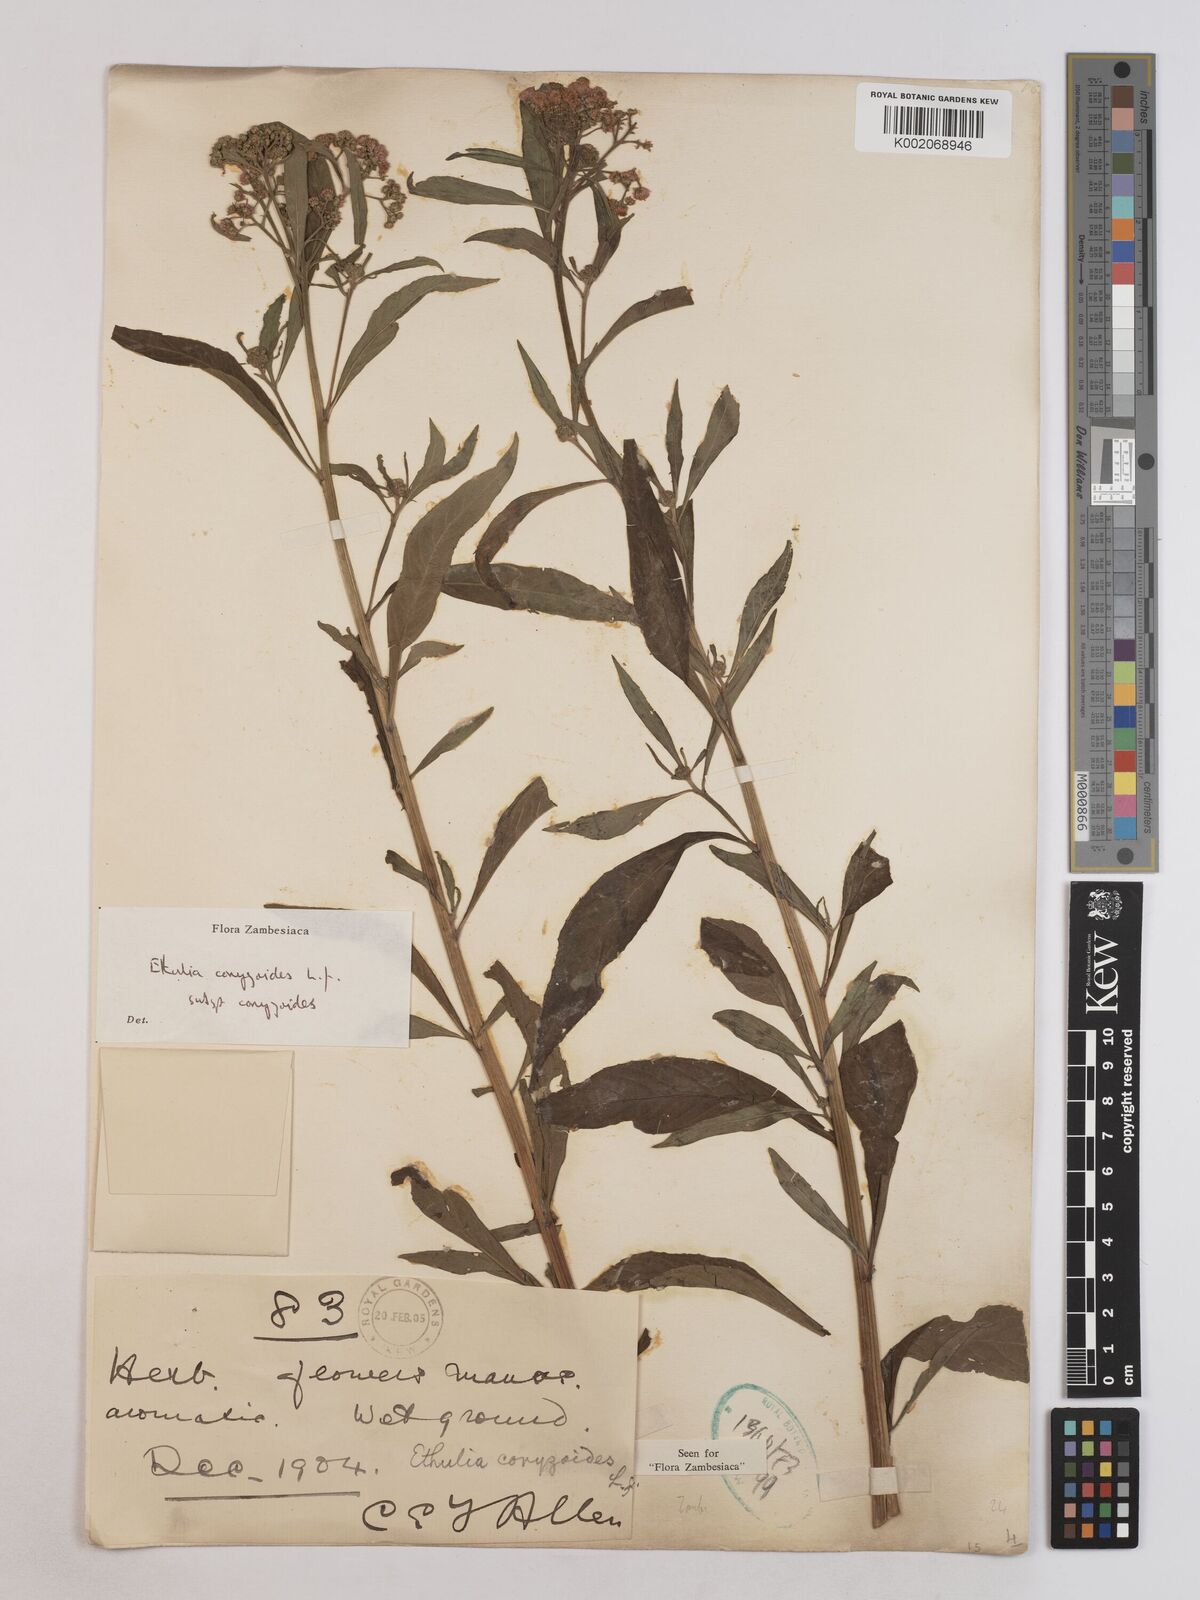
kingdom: Plantae
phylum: Tracheophyta
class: Magnoliopsida
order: Asterales
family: Asteraceae
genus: Ethulia
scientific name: Ethulia conyzoides
